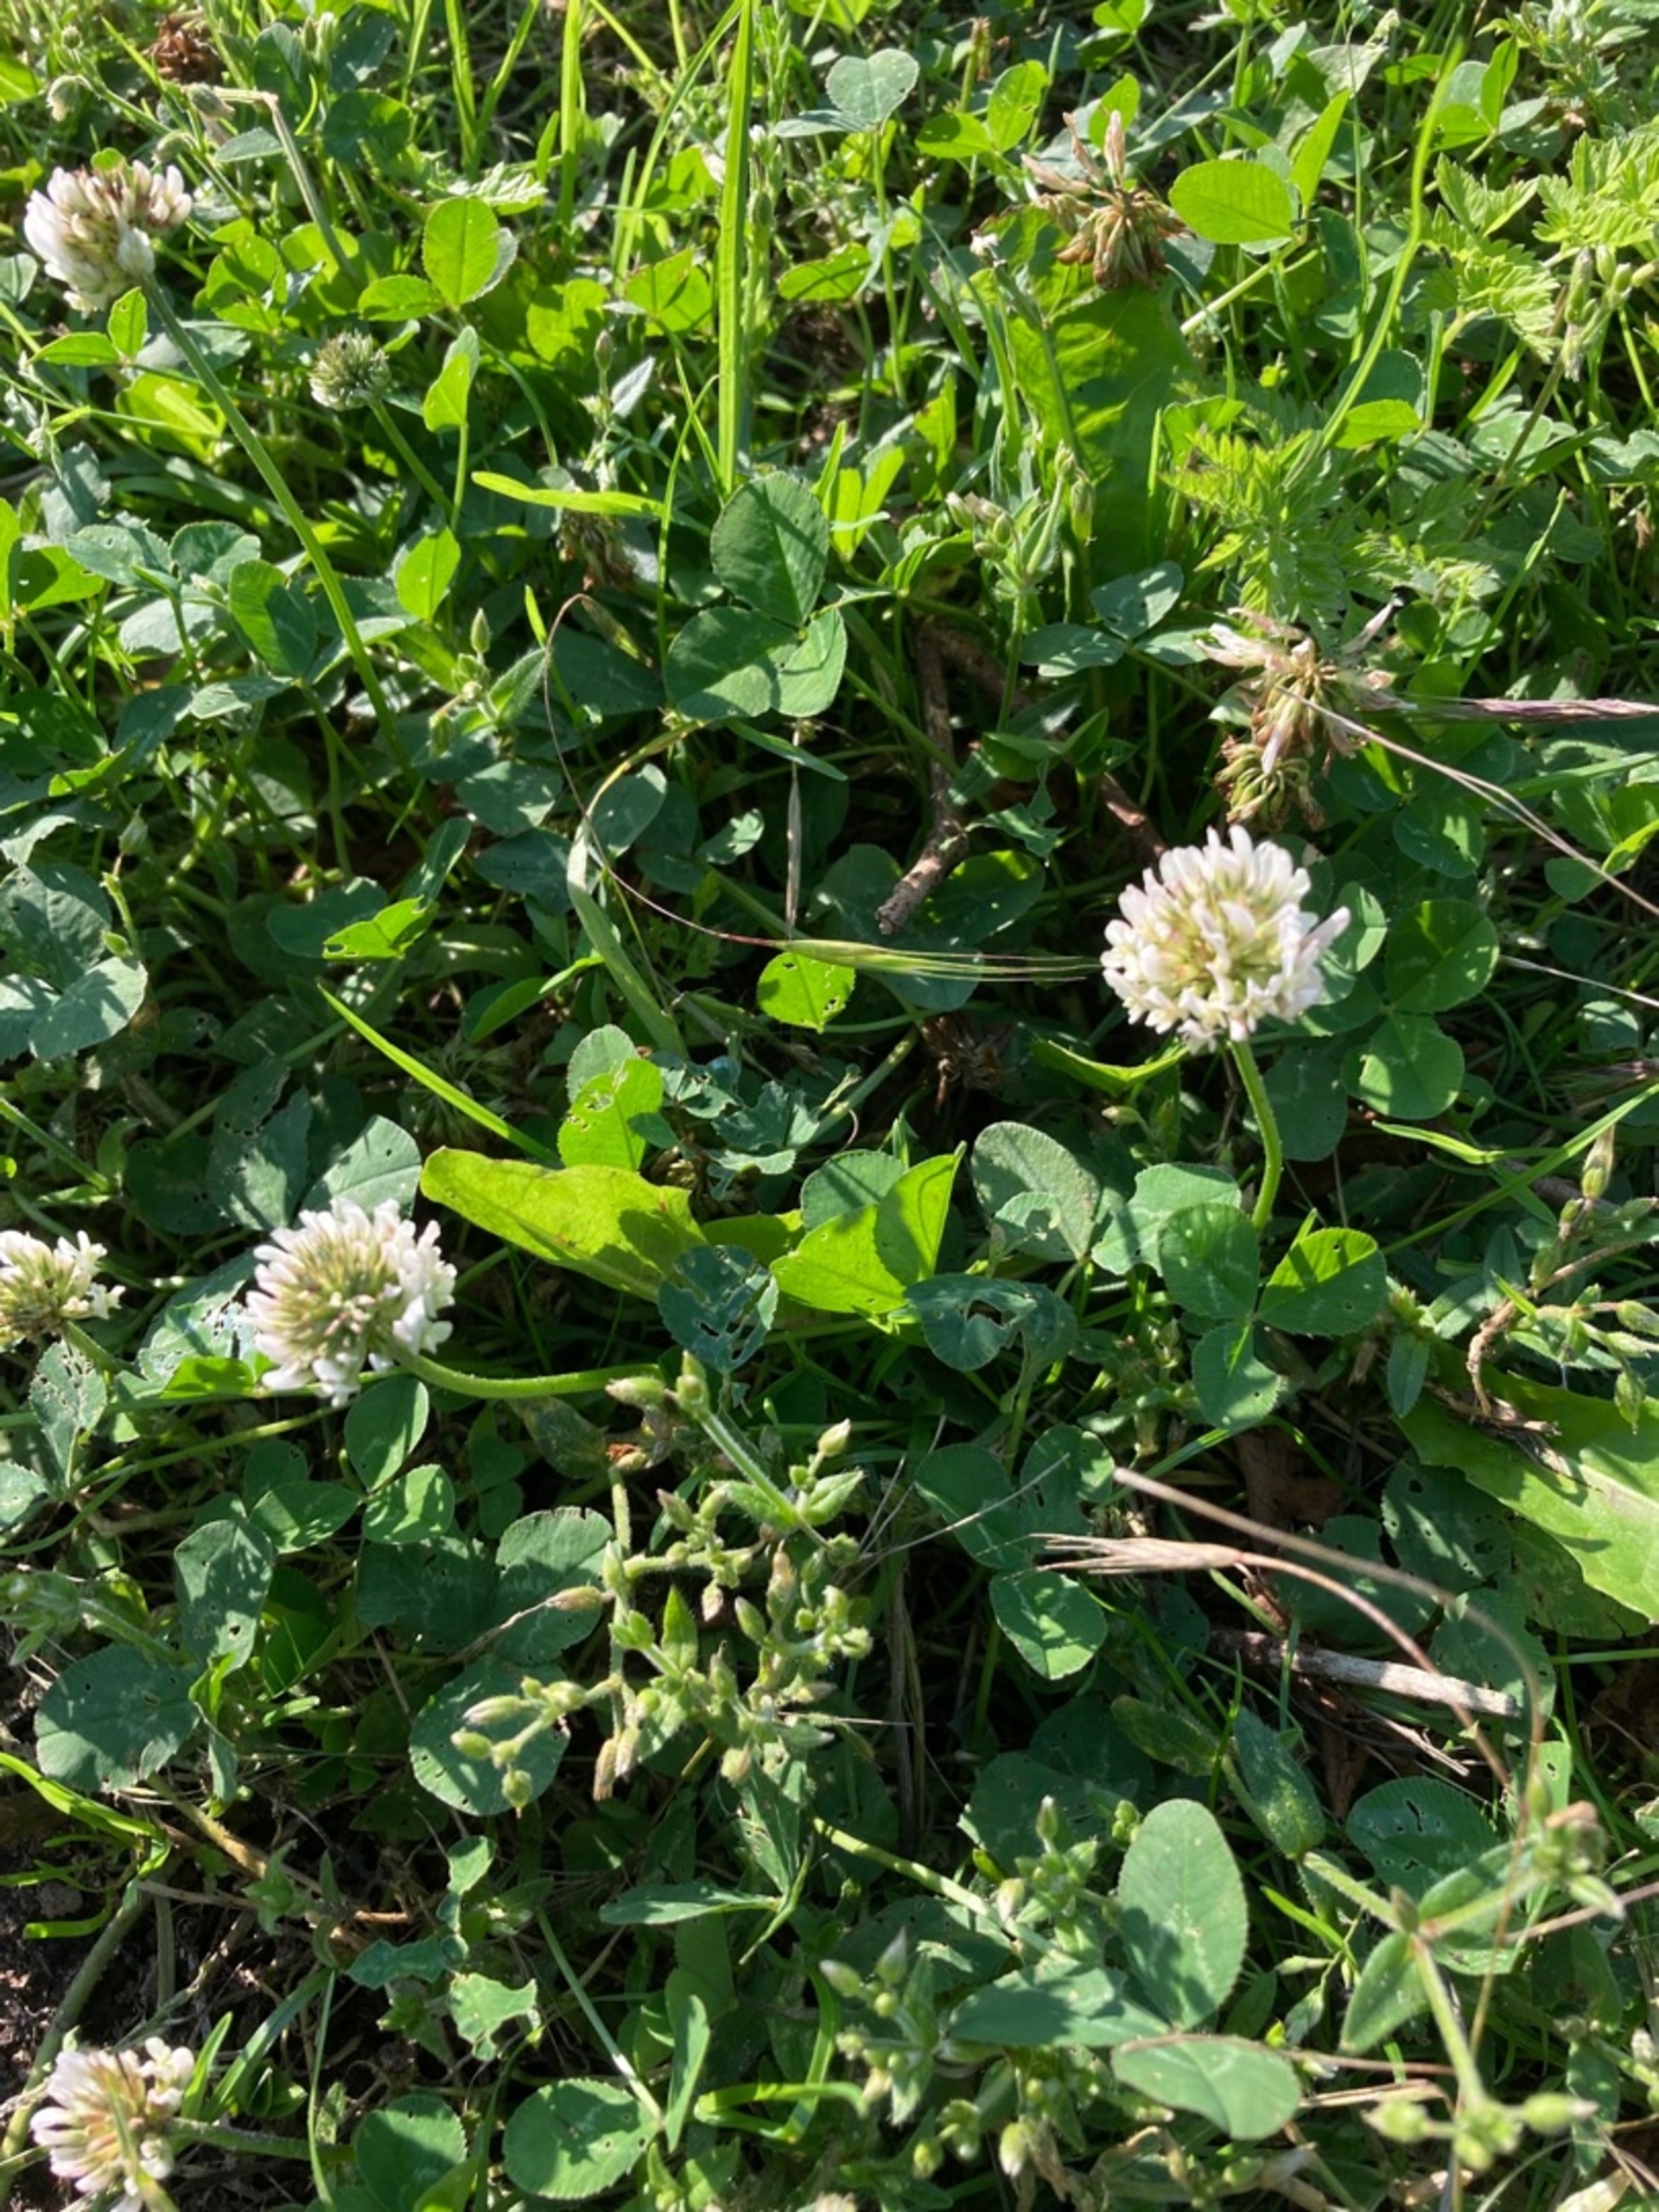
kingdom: Plantae
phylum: Tracheophyta
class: Magnoliopsida
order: Fabales
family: Fabaceae
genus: Trifolium
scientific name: Trifolium repens
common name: Hvid-kløver
